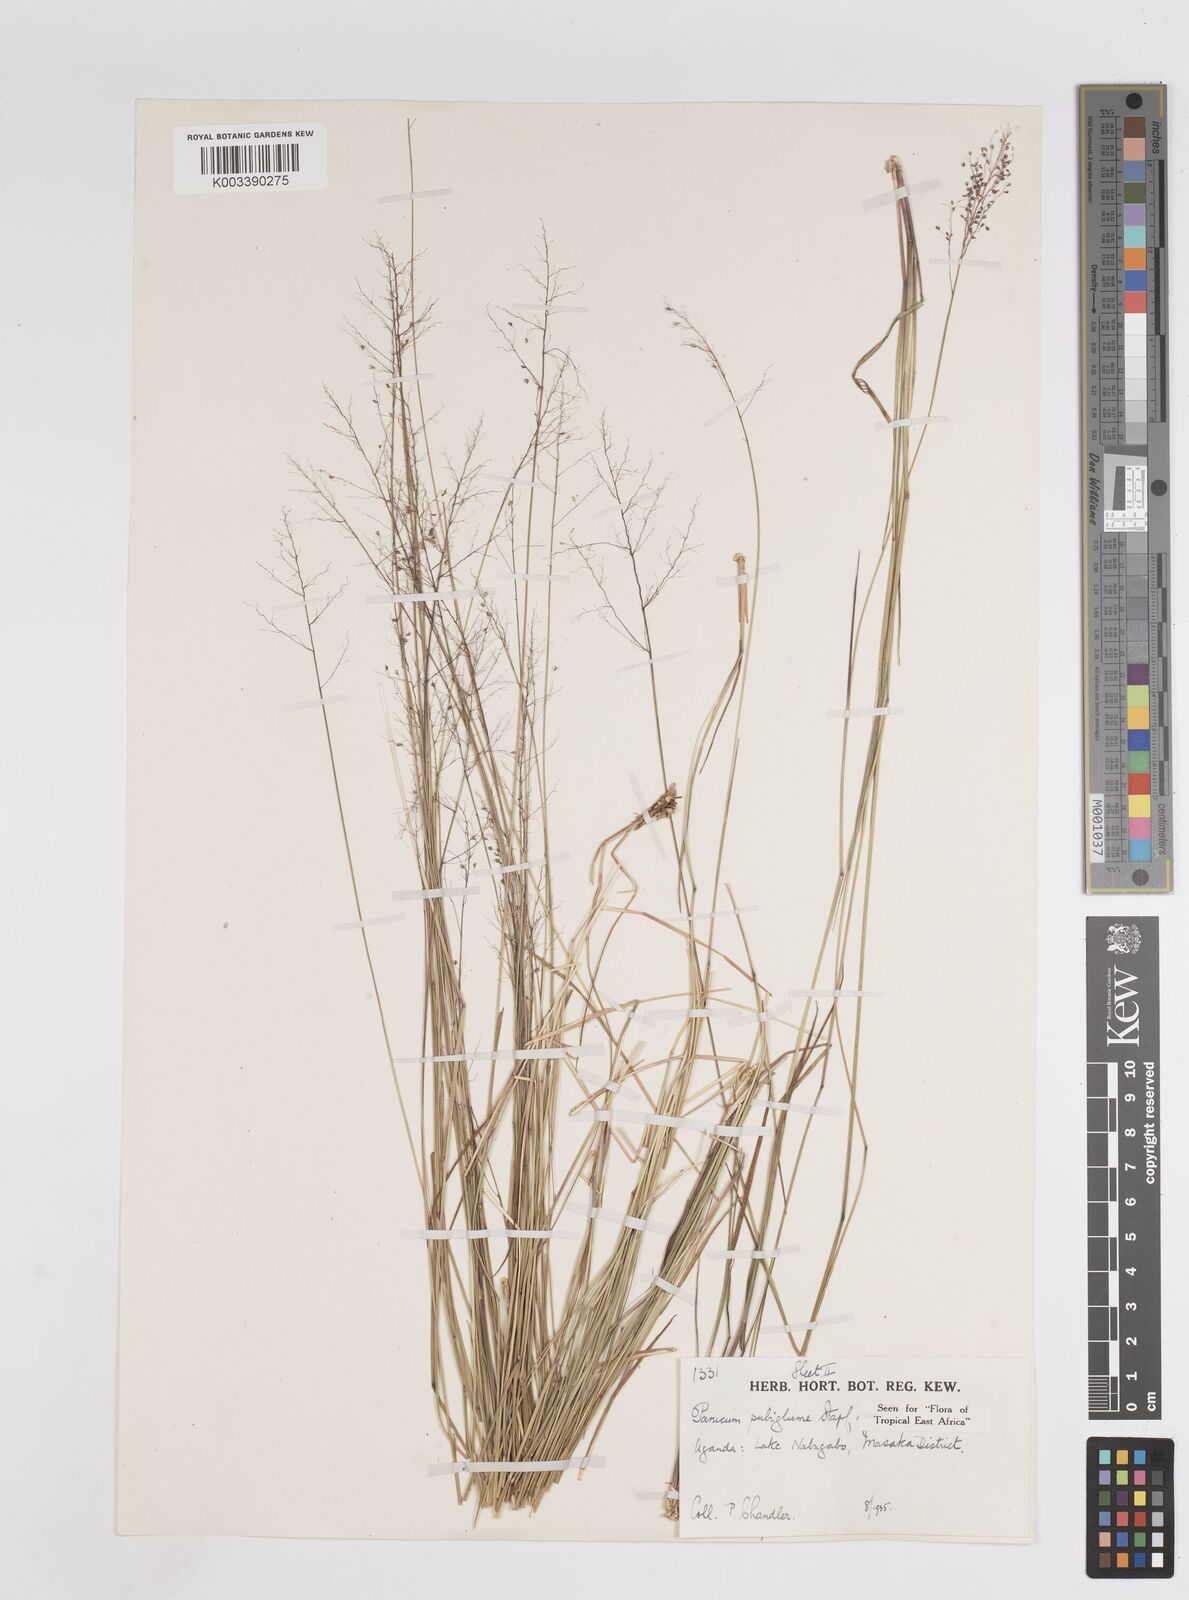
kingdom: Plantae
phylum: Tracheophyta
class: Liliopsida
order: Poales
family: Poaceae
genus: Trichanthecium
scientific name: Trichanthecium brazzavillense
